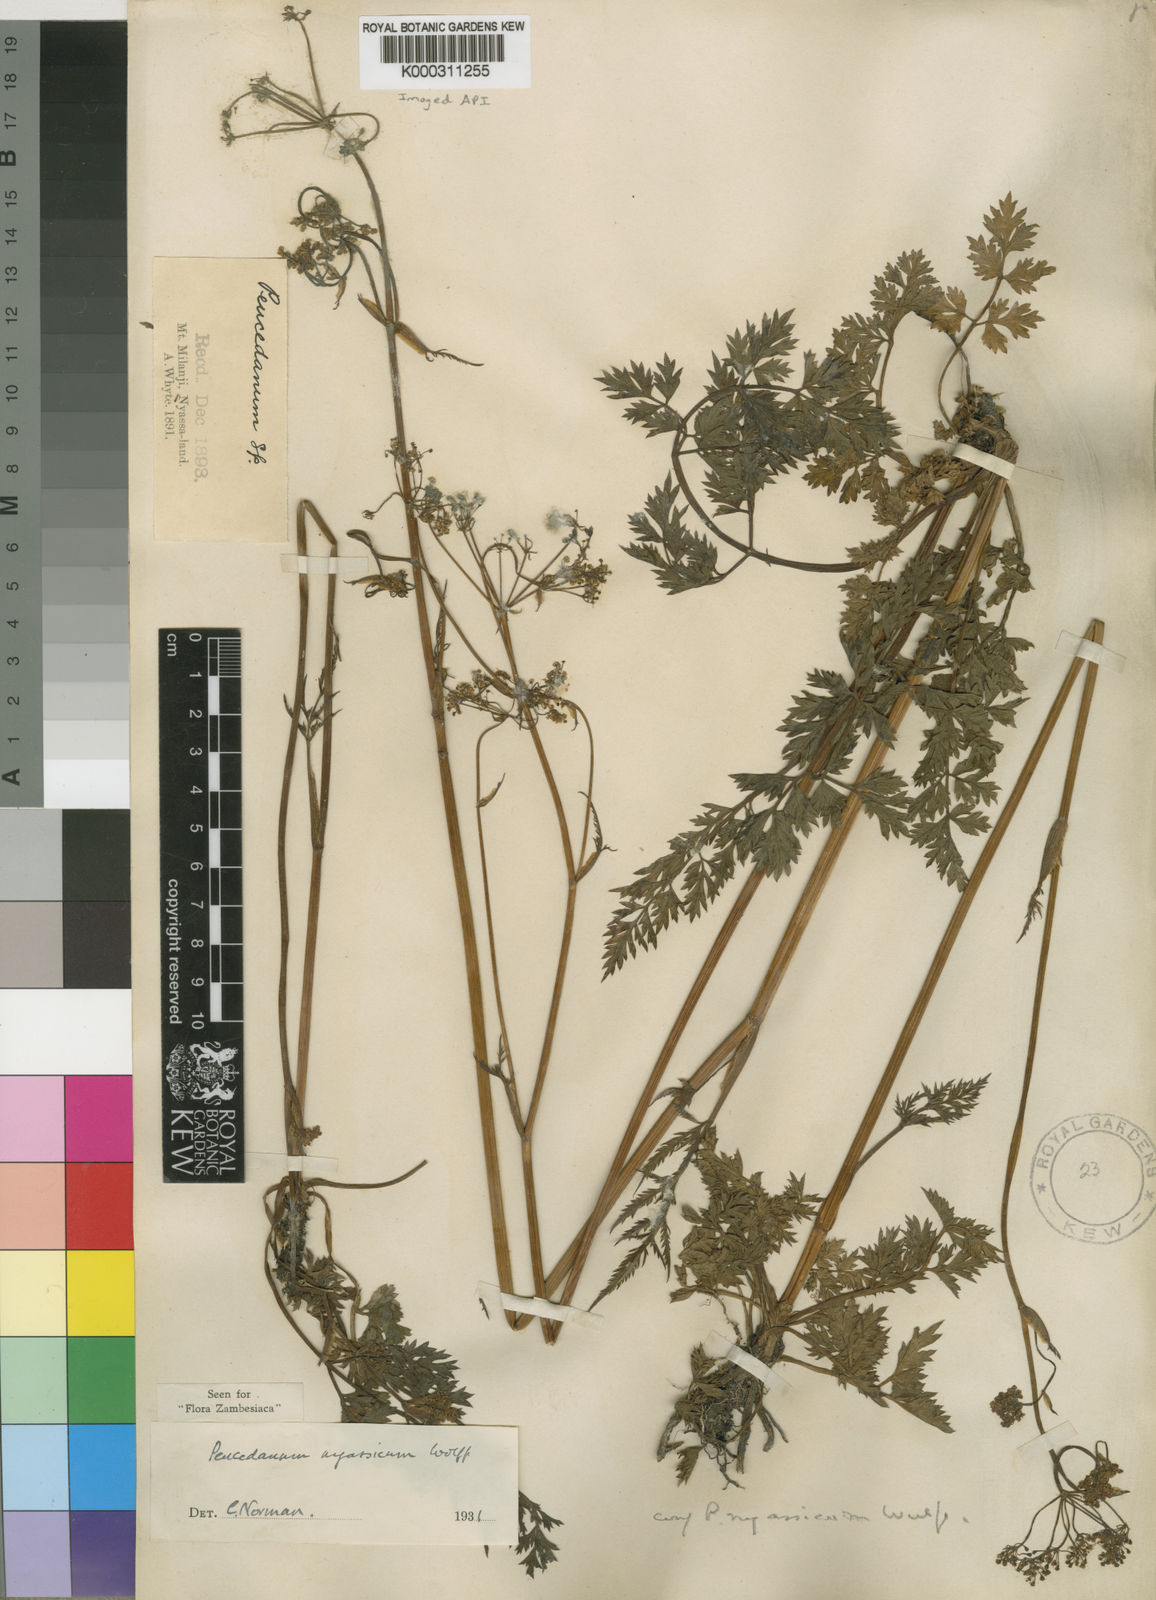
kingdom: Plantae
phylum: Tracheophyta
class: Magnoliopsida
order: Apiales
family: Apiaceae
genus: Afrosciadium
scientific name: Afrosciadium nyassicum
